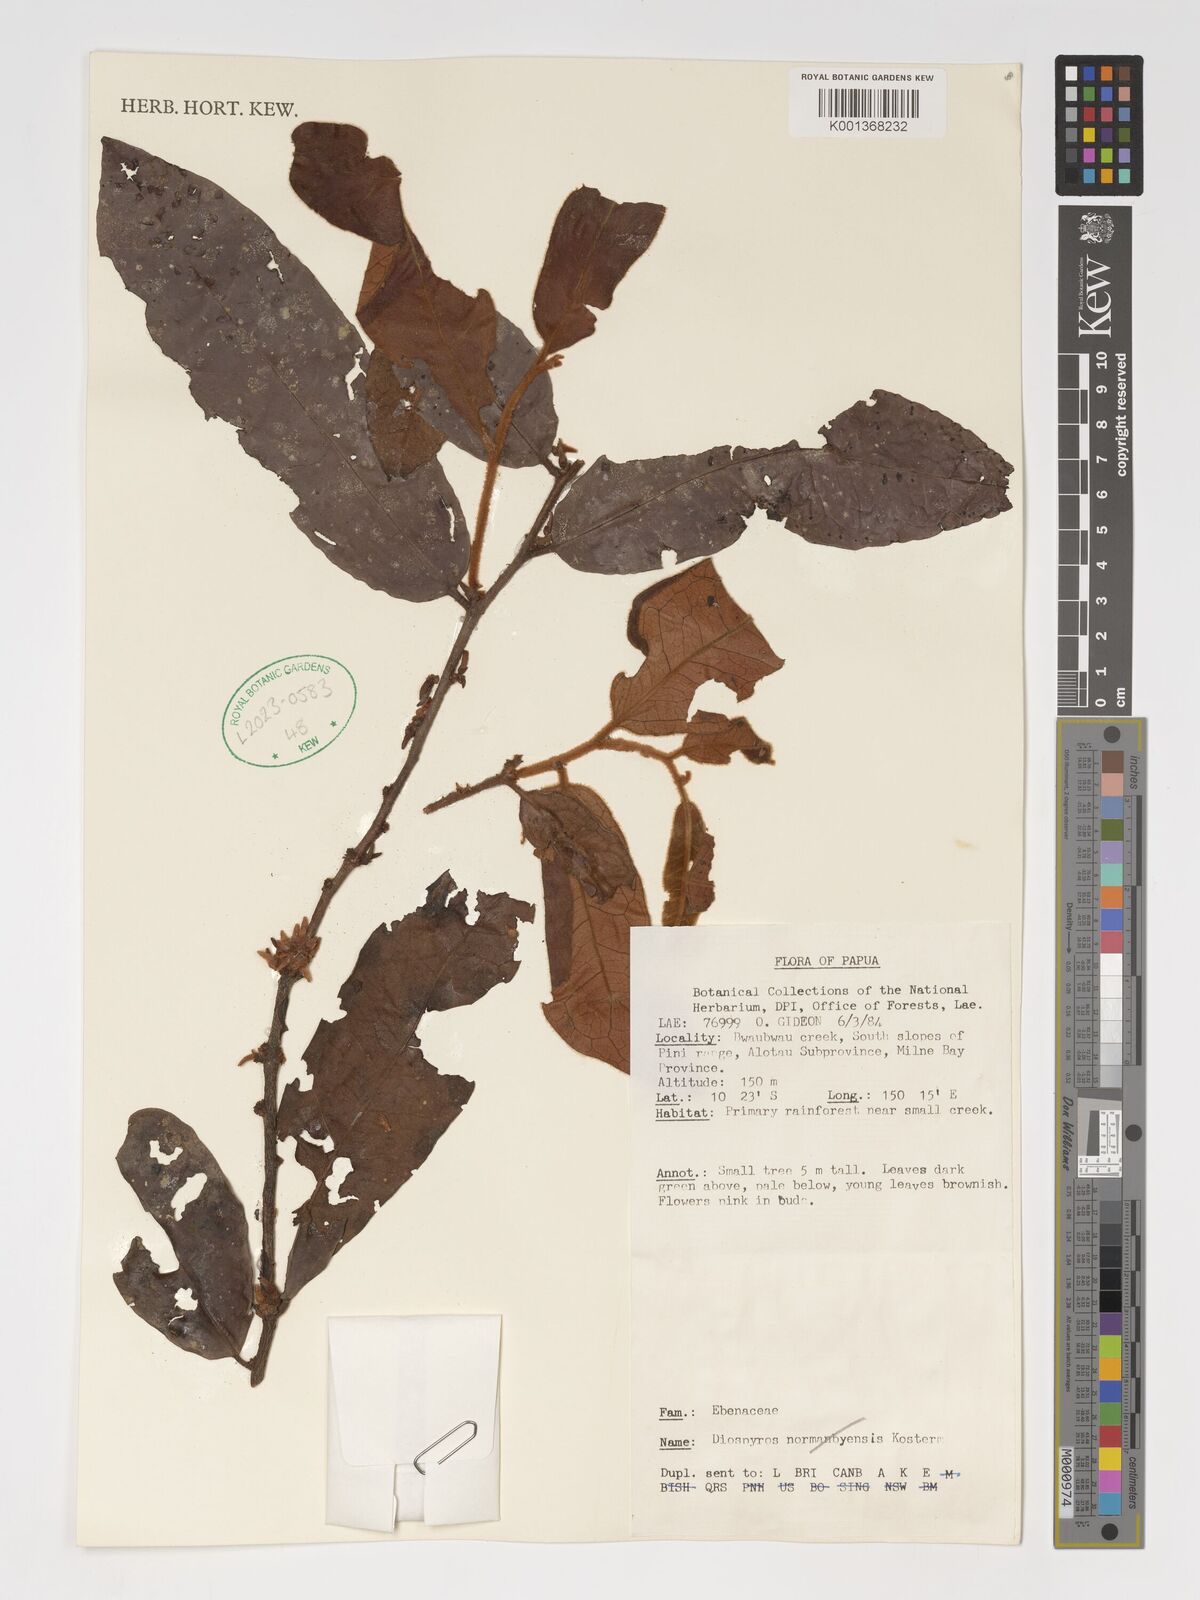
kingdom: Plantae
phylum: Tracheophyta
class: Magnoliopsida
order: Ericales
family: Ebenaceae
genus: Diospyros
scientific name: Diospyros
